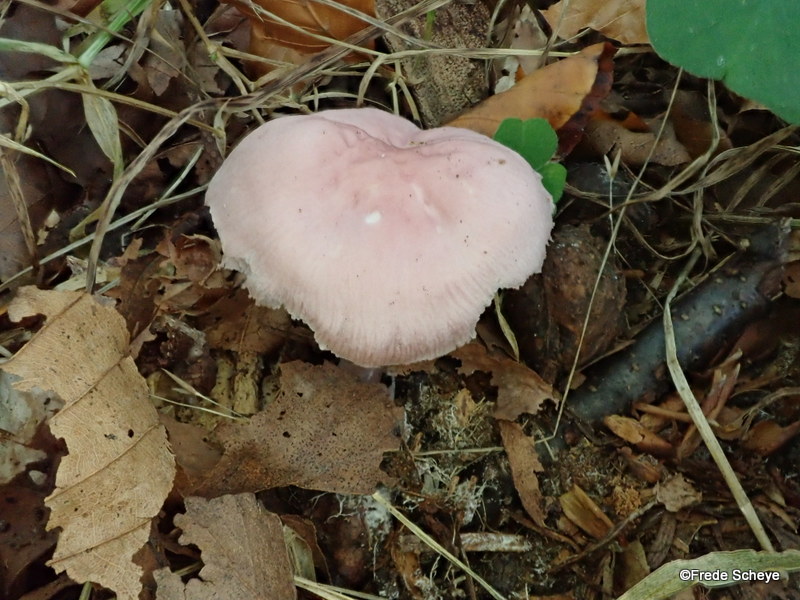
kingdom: Fungi
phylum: Basidiomycota
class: Agaricomycetes
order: Agaricales
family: Mycenaceae
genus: Mycena
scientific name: Mycena rosea
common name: rosa huesvamp
